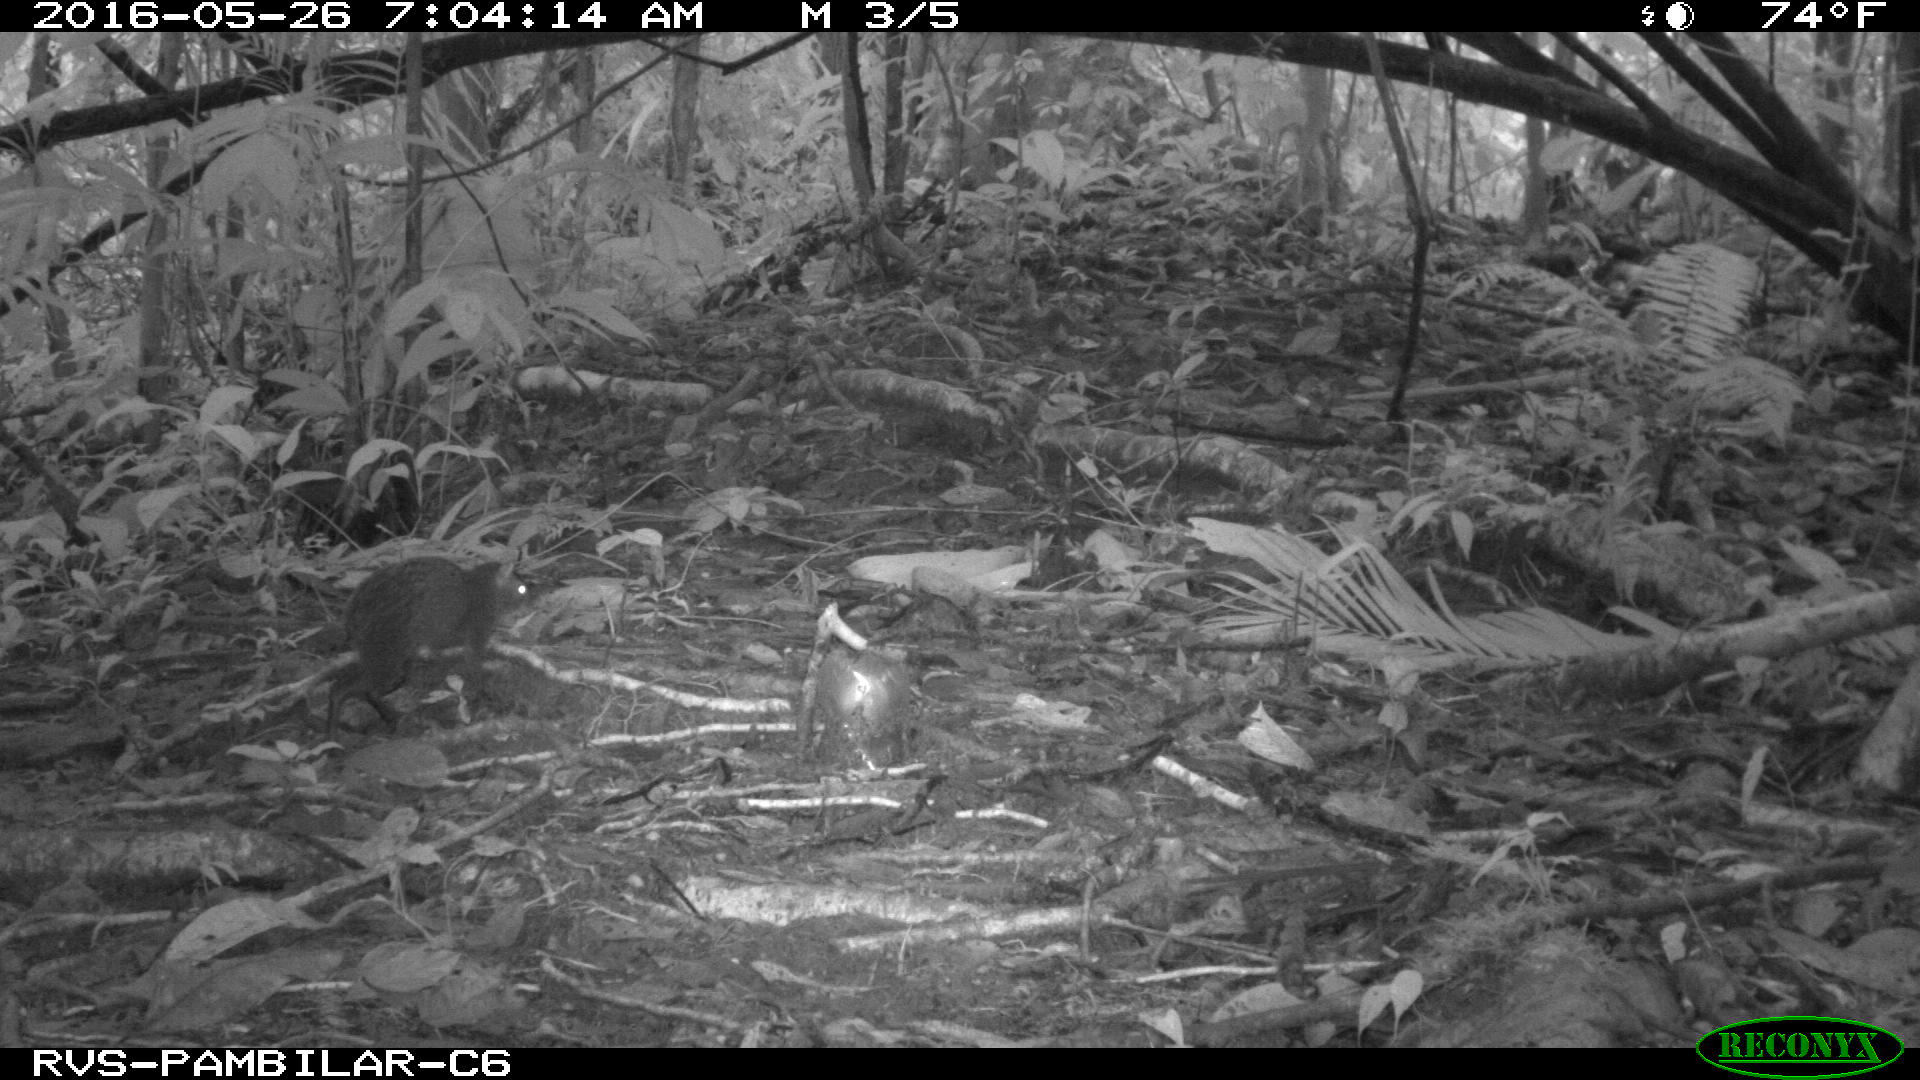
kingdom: Animalia
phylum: Chordata
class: Mammalia
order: Rodentia
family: Dasyproctidae
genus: Dasyprocta
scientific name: Dasyprocta punctata
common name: Central american agouti
